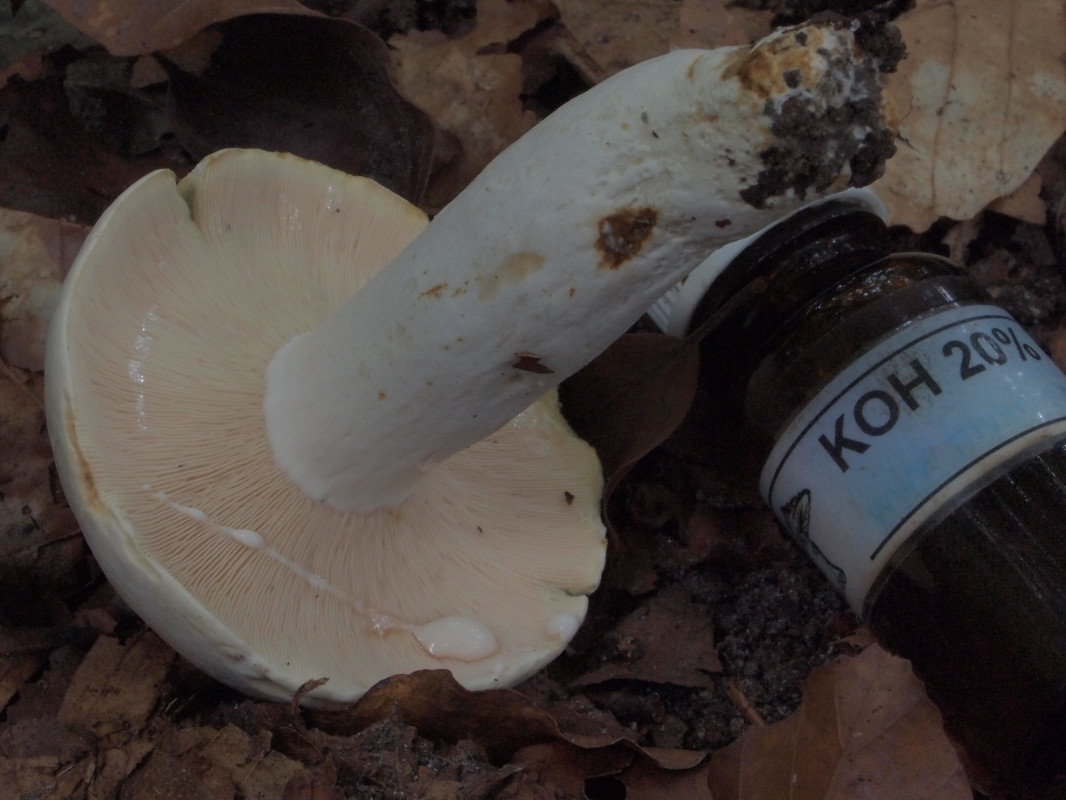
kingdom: Fungi
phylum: Basidiomycota
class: Agaricomycetes
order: Russulales
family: Russulaceae
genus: Lactifluus
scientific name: Lactifluus piperatus
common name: peber-mælkehat
